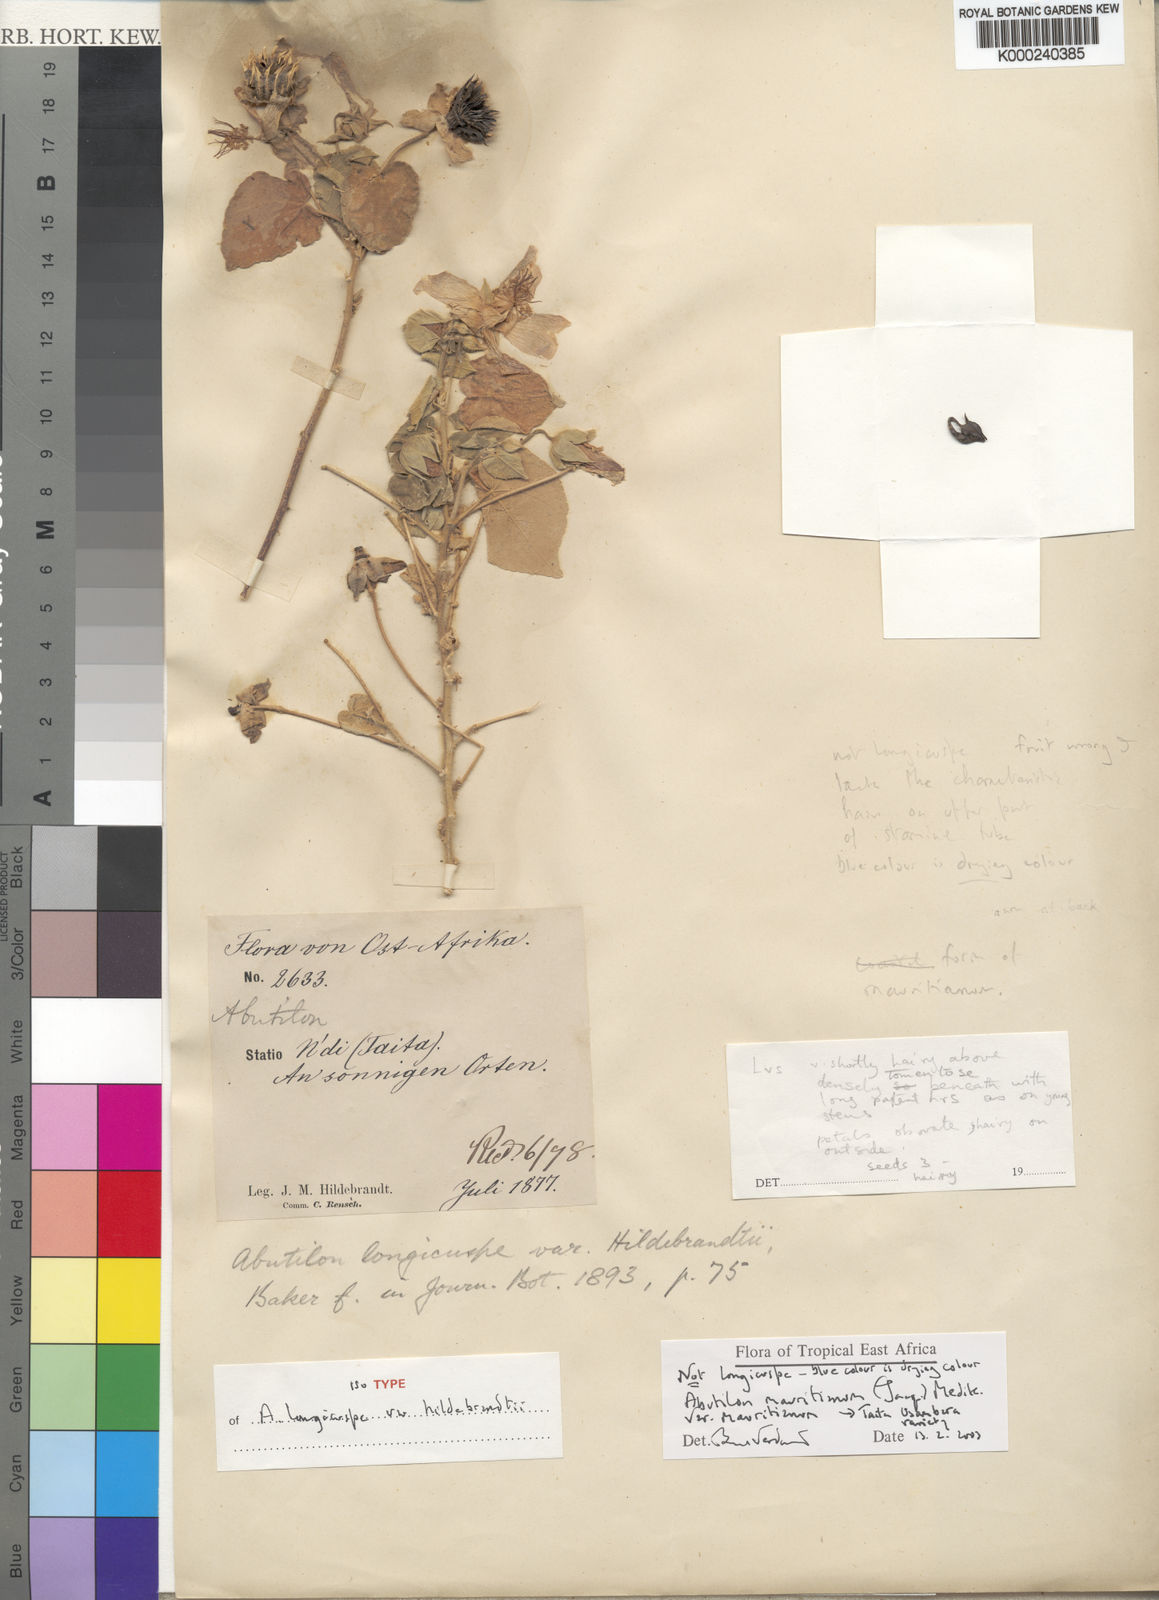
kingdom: Plantae
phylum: Tracheophyta
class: Magnoliopsida
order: Malvales
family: Malvaceae
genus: Abutilon
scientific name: Abutilon mauritianum
